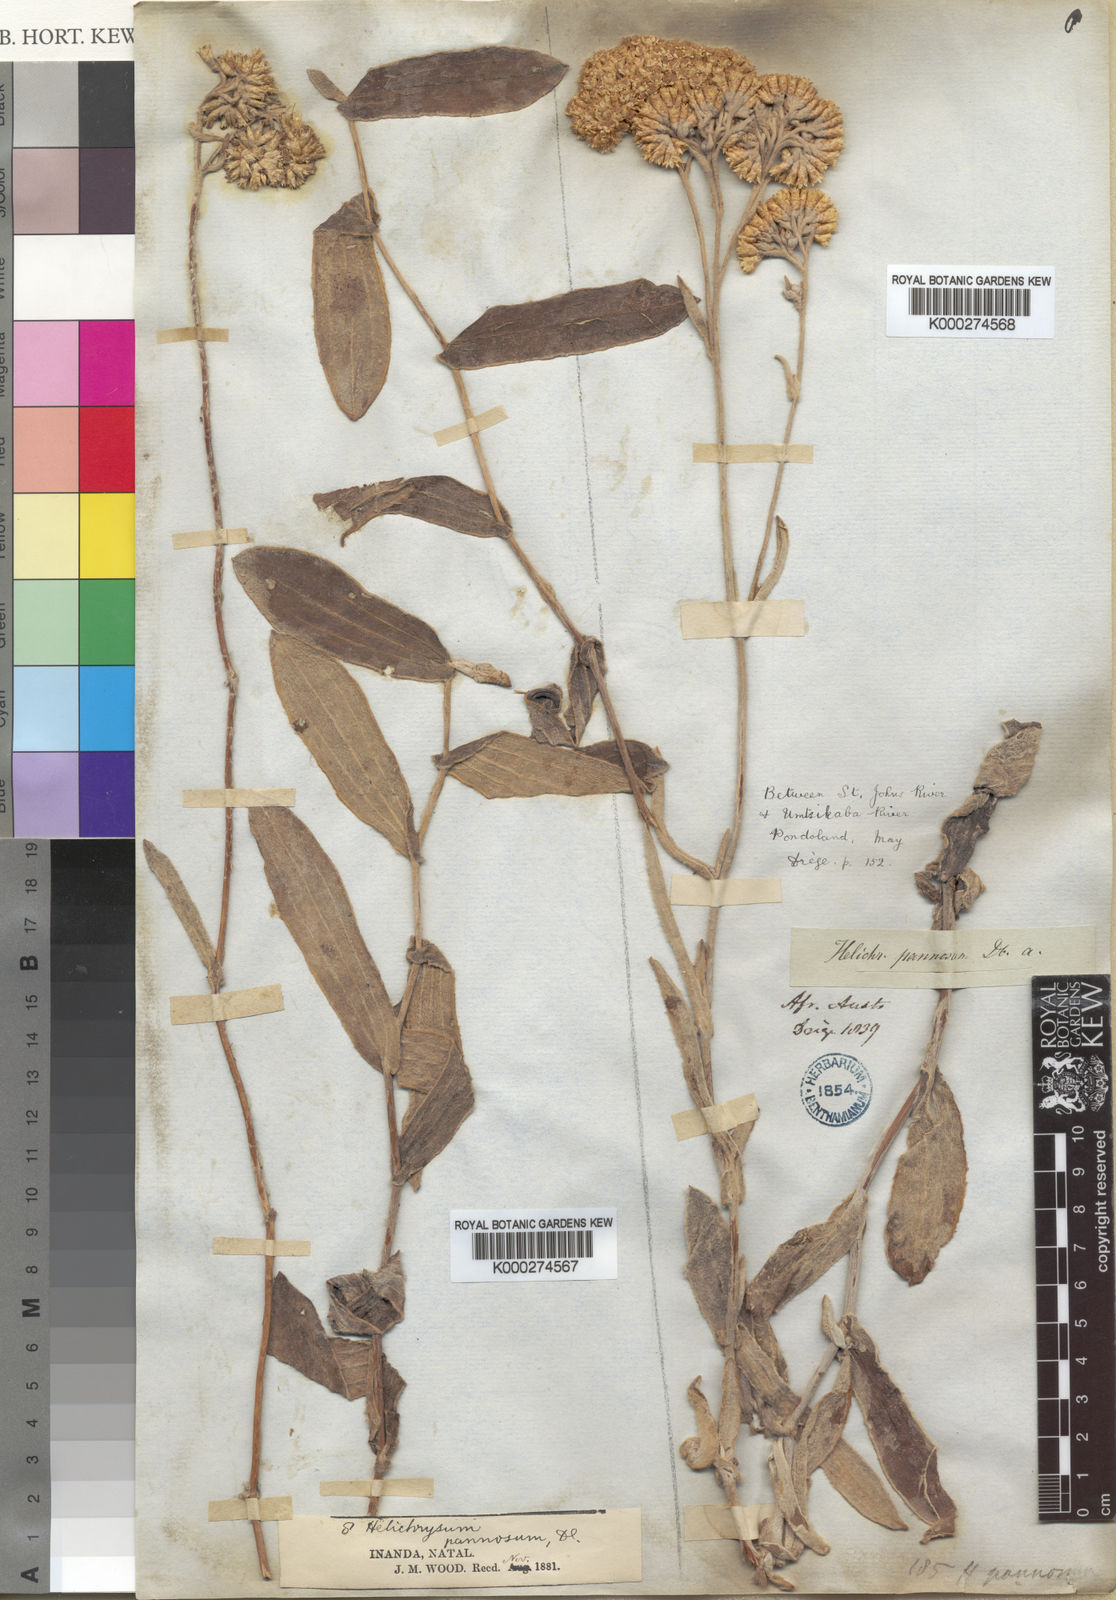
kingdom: Plantae
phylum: Tracheophyta
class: Magnoliopsida
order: Asterales
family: Asteraceae
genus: Helichrysum
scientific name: Helichrysum pannosum
